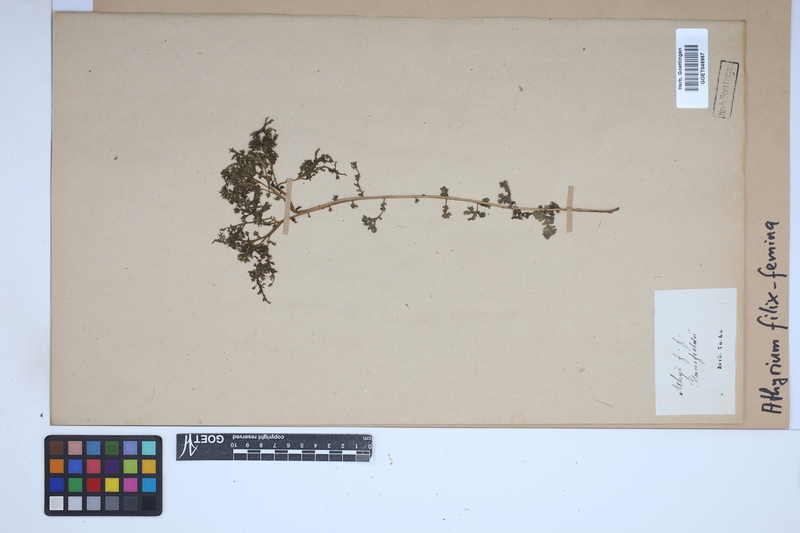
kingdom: Plantae
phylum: Tracheophyta
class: Polypodiopsida
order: Polypodiales
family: Athyriaceae
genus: Athyrium
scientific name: Athyrium filix-femina
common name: Lady fern
